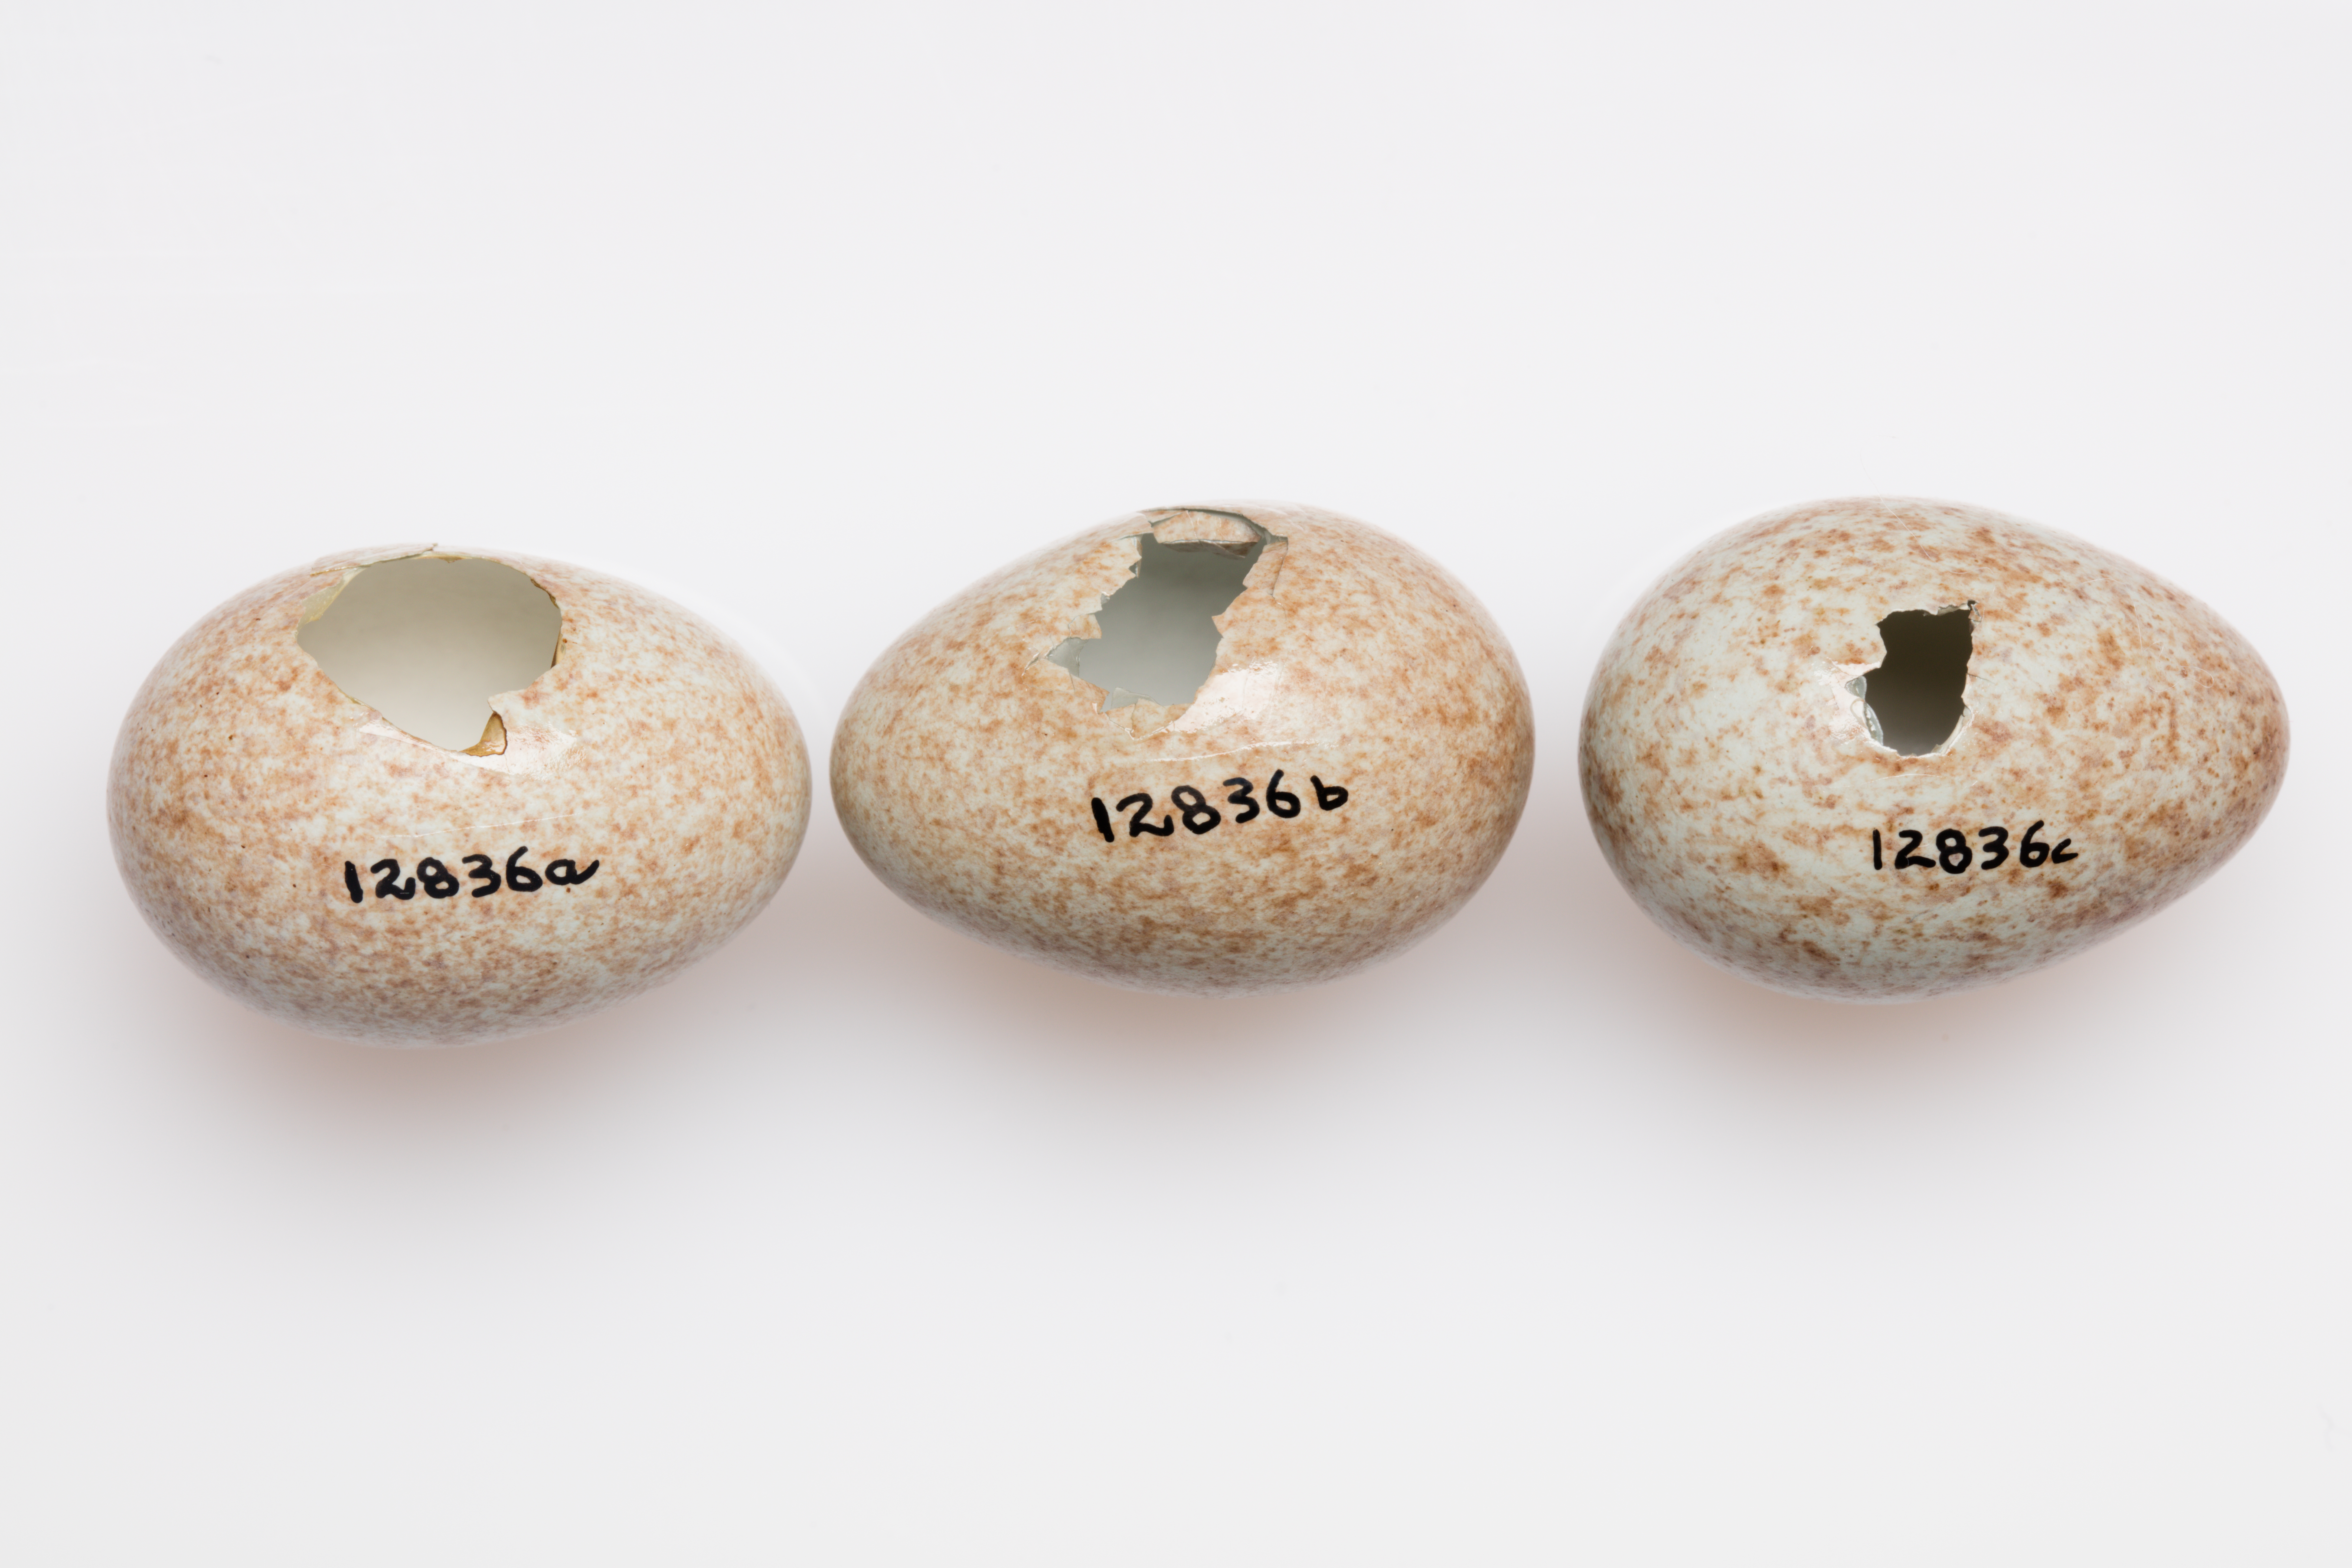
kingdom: Animalia
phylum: Chordata
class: Aves
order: Passeriformes
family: Turdidae
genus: Turdus
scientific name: Turdus merula
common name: Common blackbird
